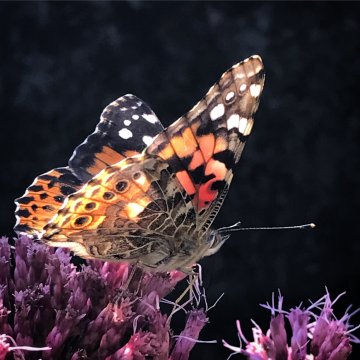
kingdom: Animalia
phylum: Arthropoda
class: Insecta
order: Lepidoptera
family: Nymphalidae
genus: Vanessa
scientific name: Vanessa cardui
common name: Painted Lady
